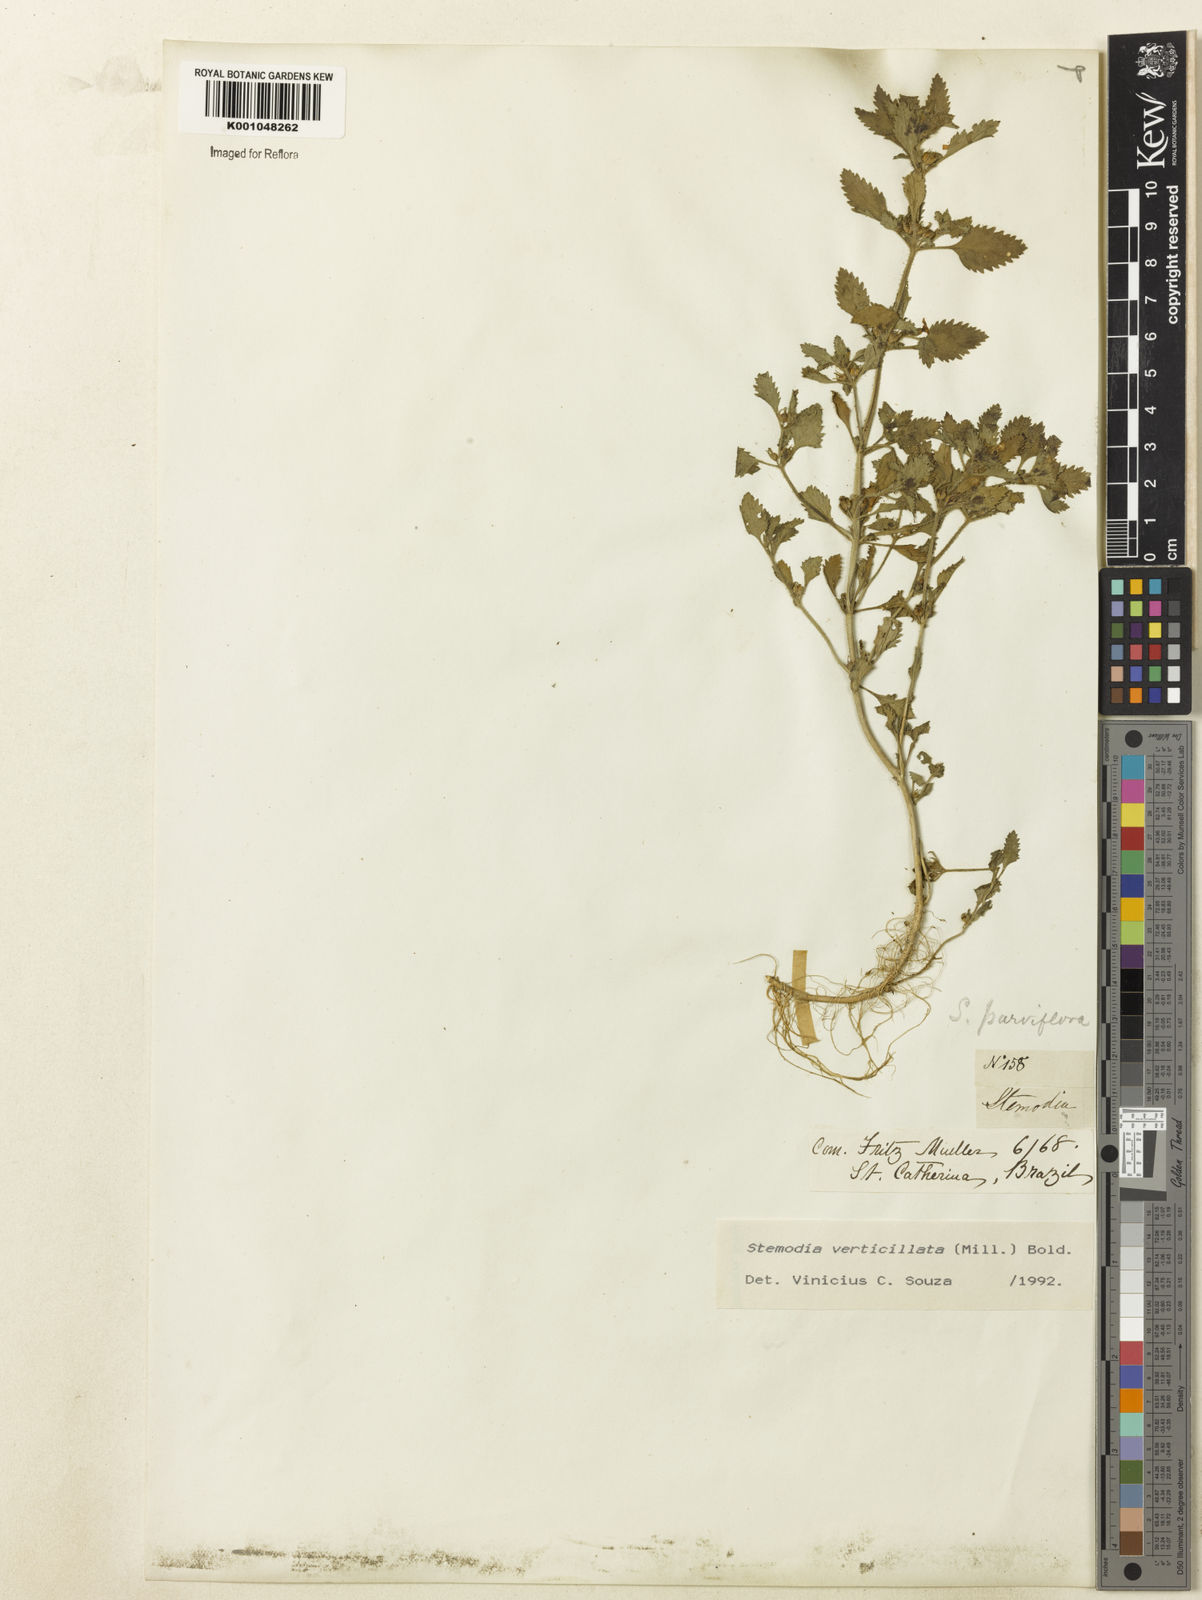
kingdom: Plantae
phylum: Tracheophyta
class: Magnoliopsida
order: Lamiales
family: Plantaginaceae
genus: Stemodia
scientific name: Stemodia verticillata
